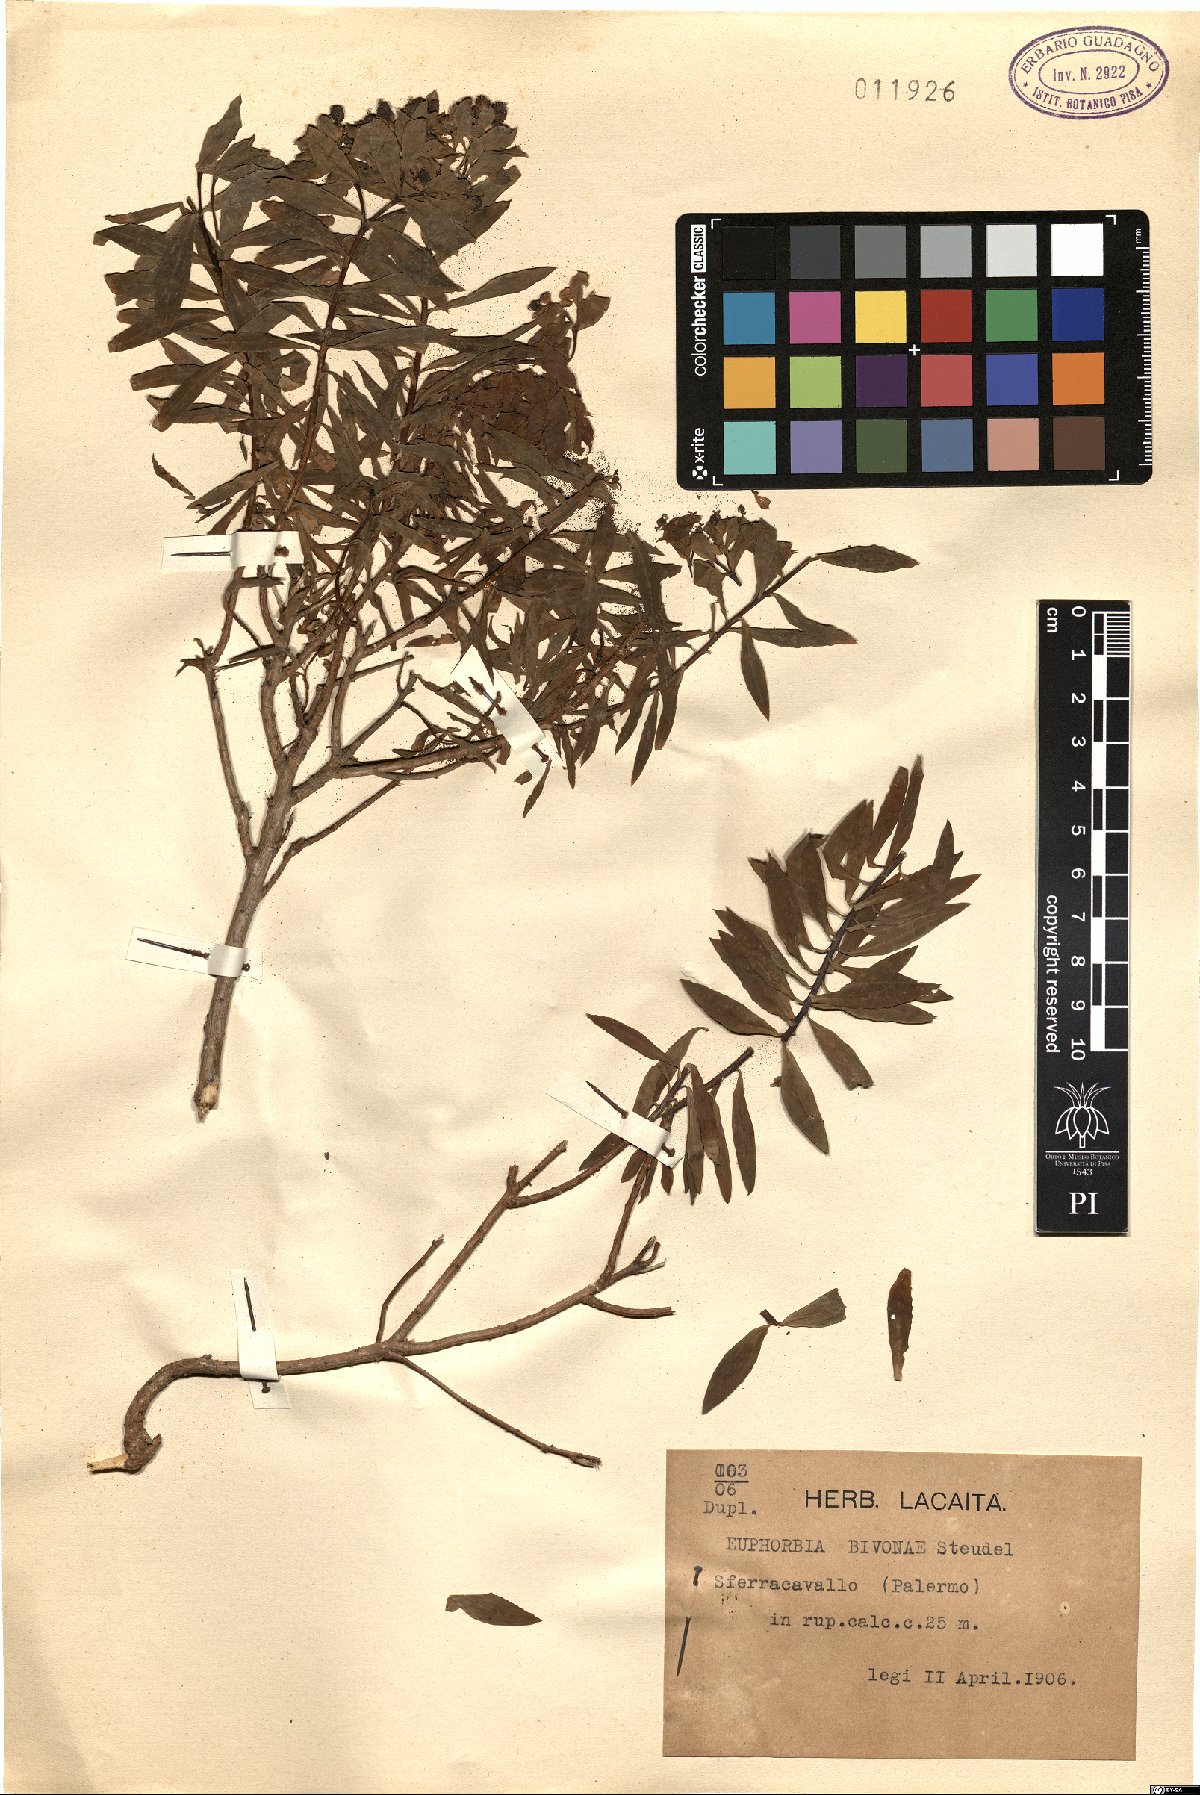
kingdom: Plantae
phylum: Tracheophyta
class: Magnoliopsida
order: Malpighiales
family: Euphorbiaceae
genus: Euphorbia
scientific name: Euphorbia bivonae
